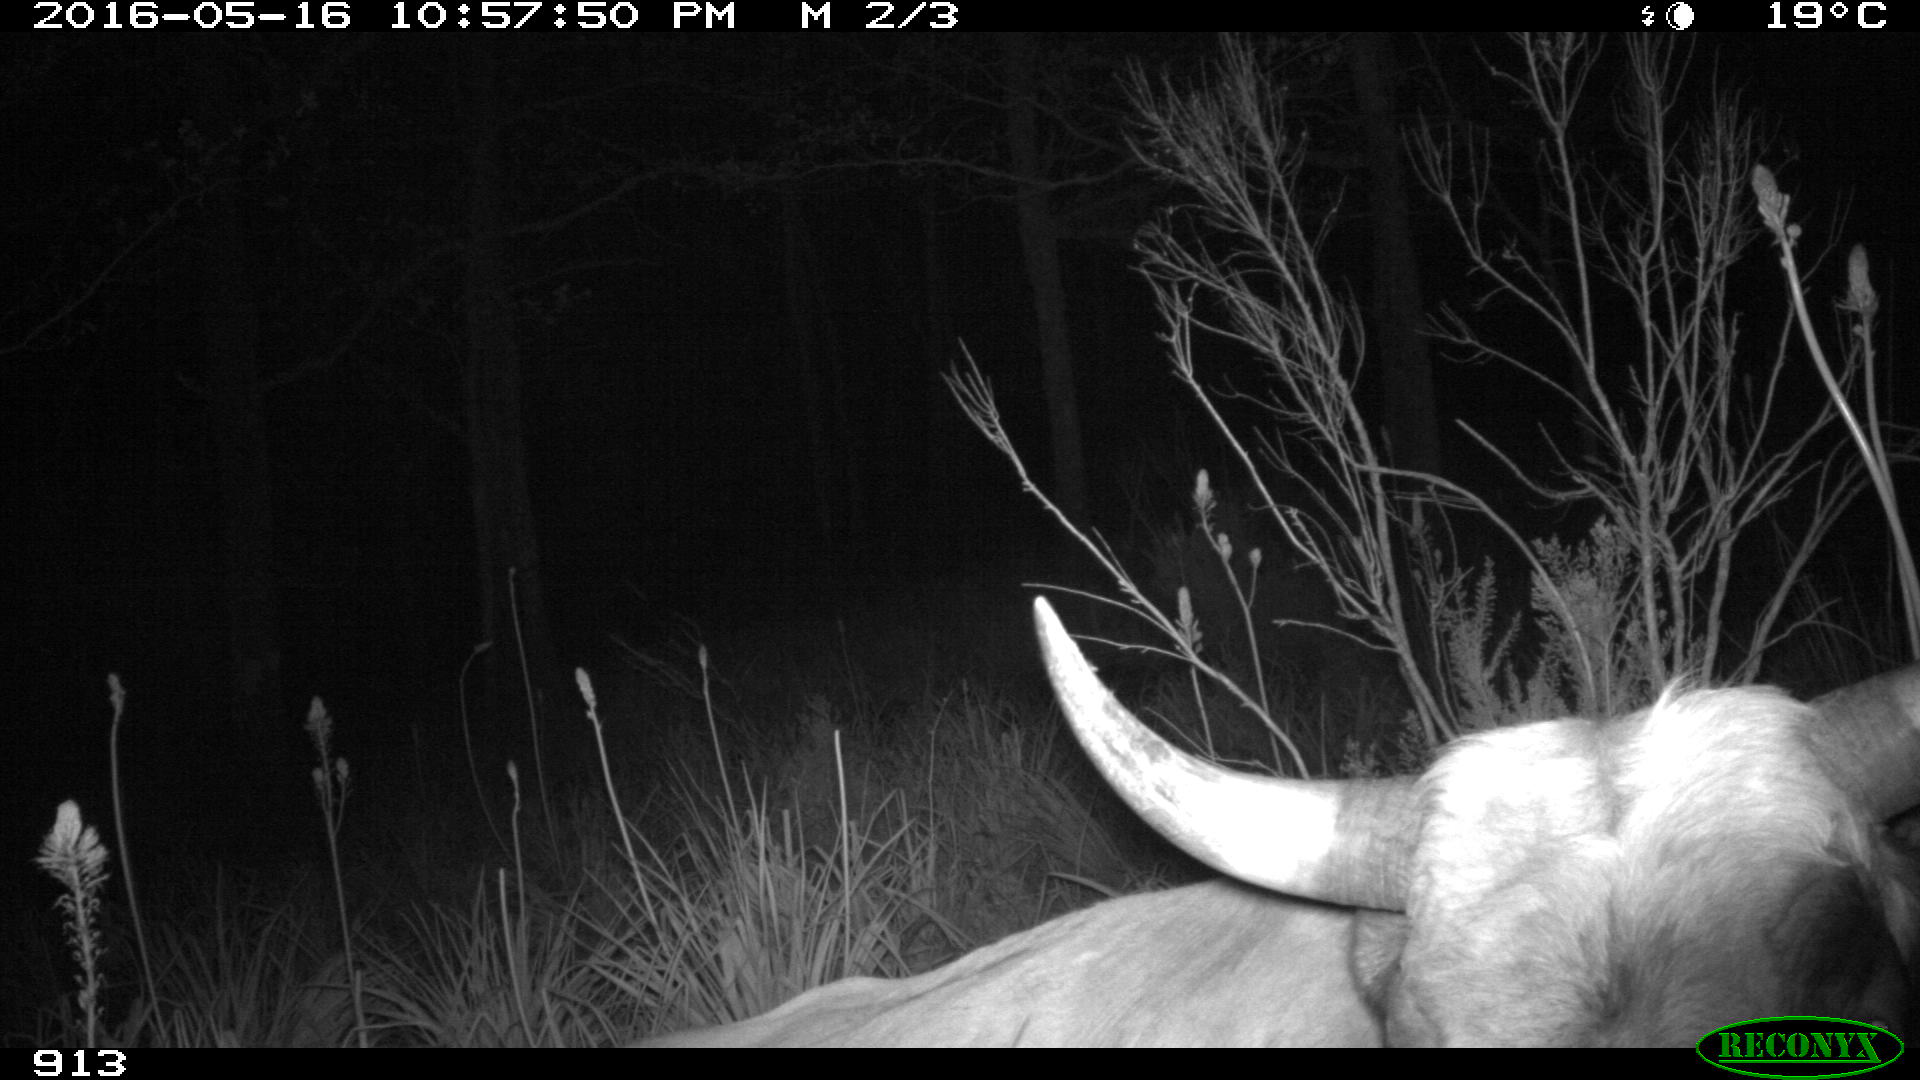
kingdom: Animalia
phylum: Chordata
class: Mammalia
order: Artiodactyla
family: Bovidae
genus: Bos
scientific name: Bos taurus
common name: Domesticated cattle
